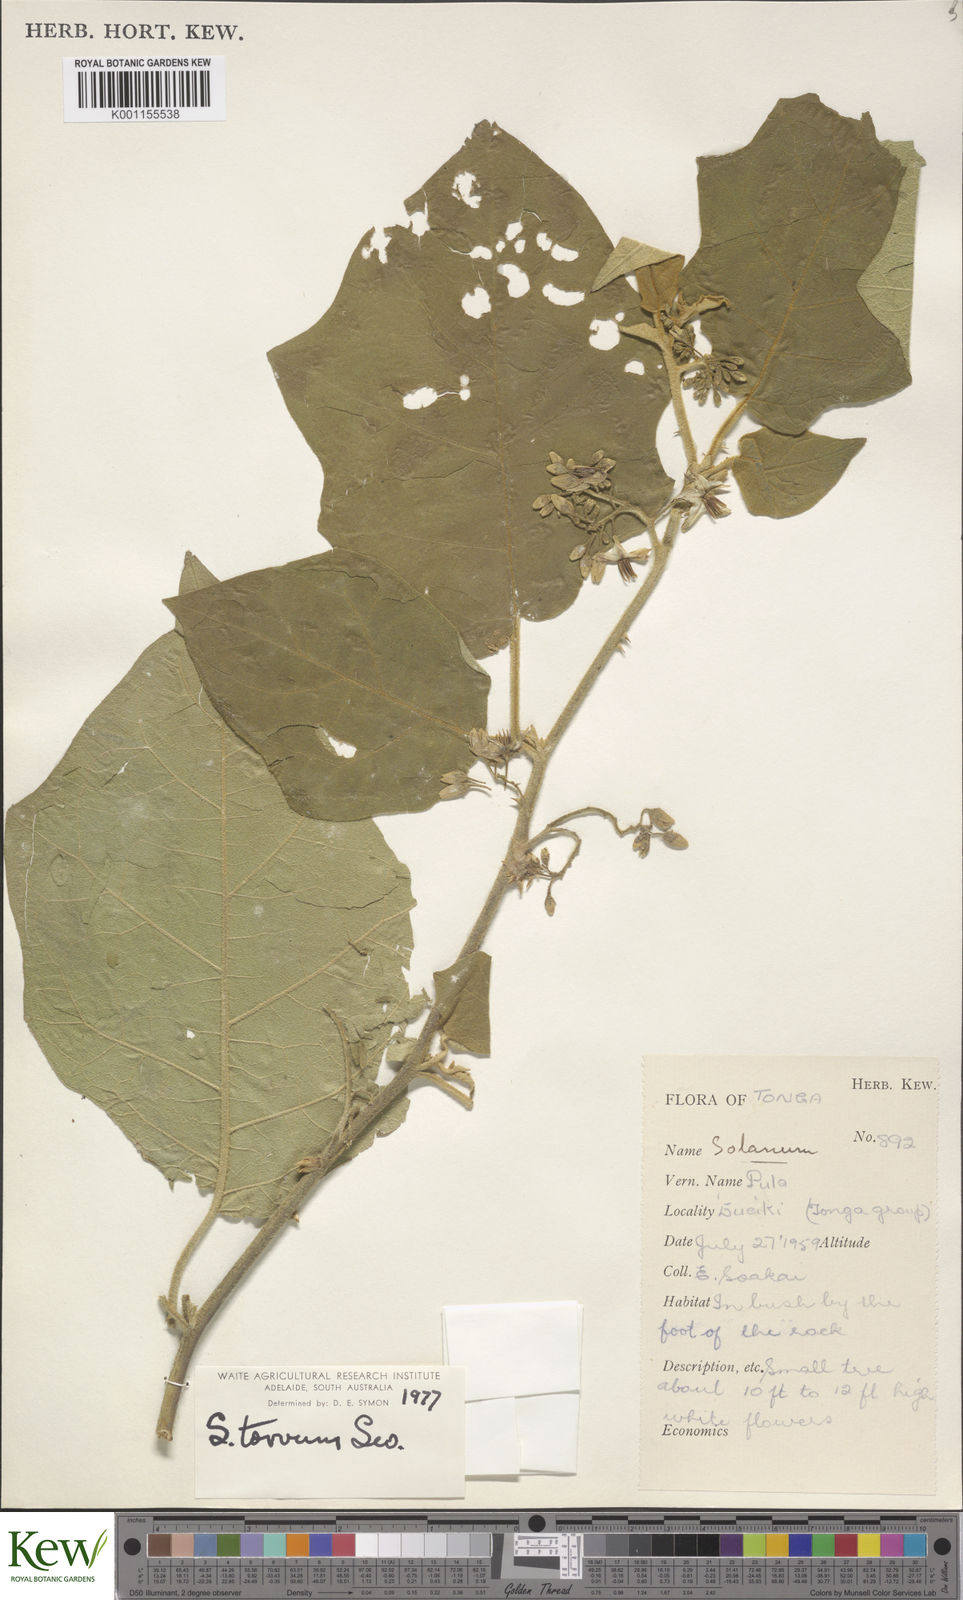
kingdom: Plantae
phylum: Tracheophyta
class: Magnoliopsida
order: Solanales
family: Solanaceae
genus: Solanum
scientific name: Solanum torvum
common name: Turkey berry
